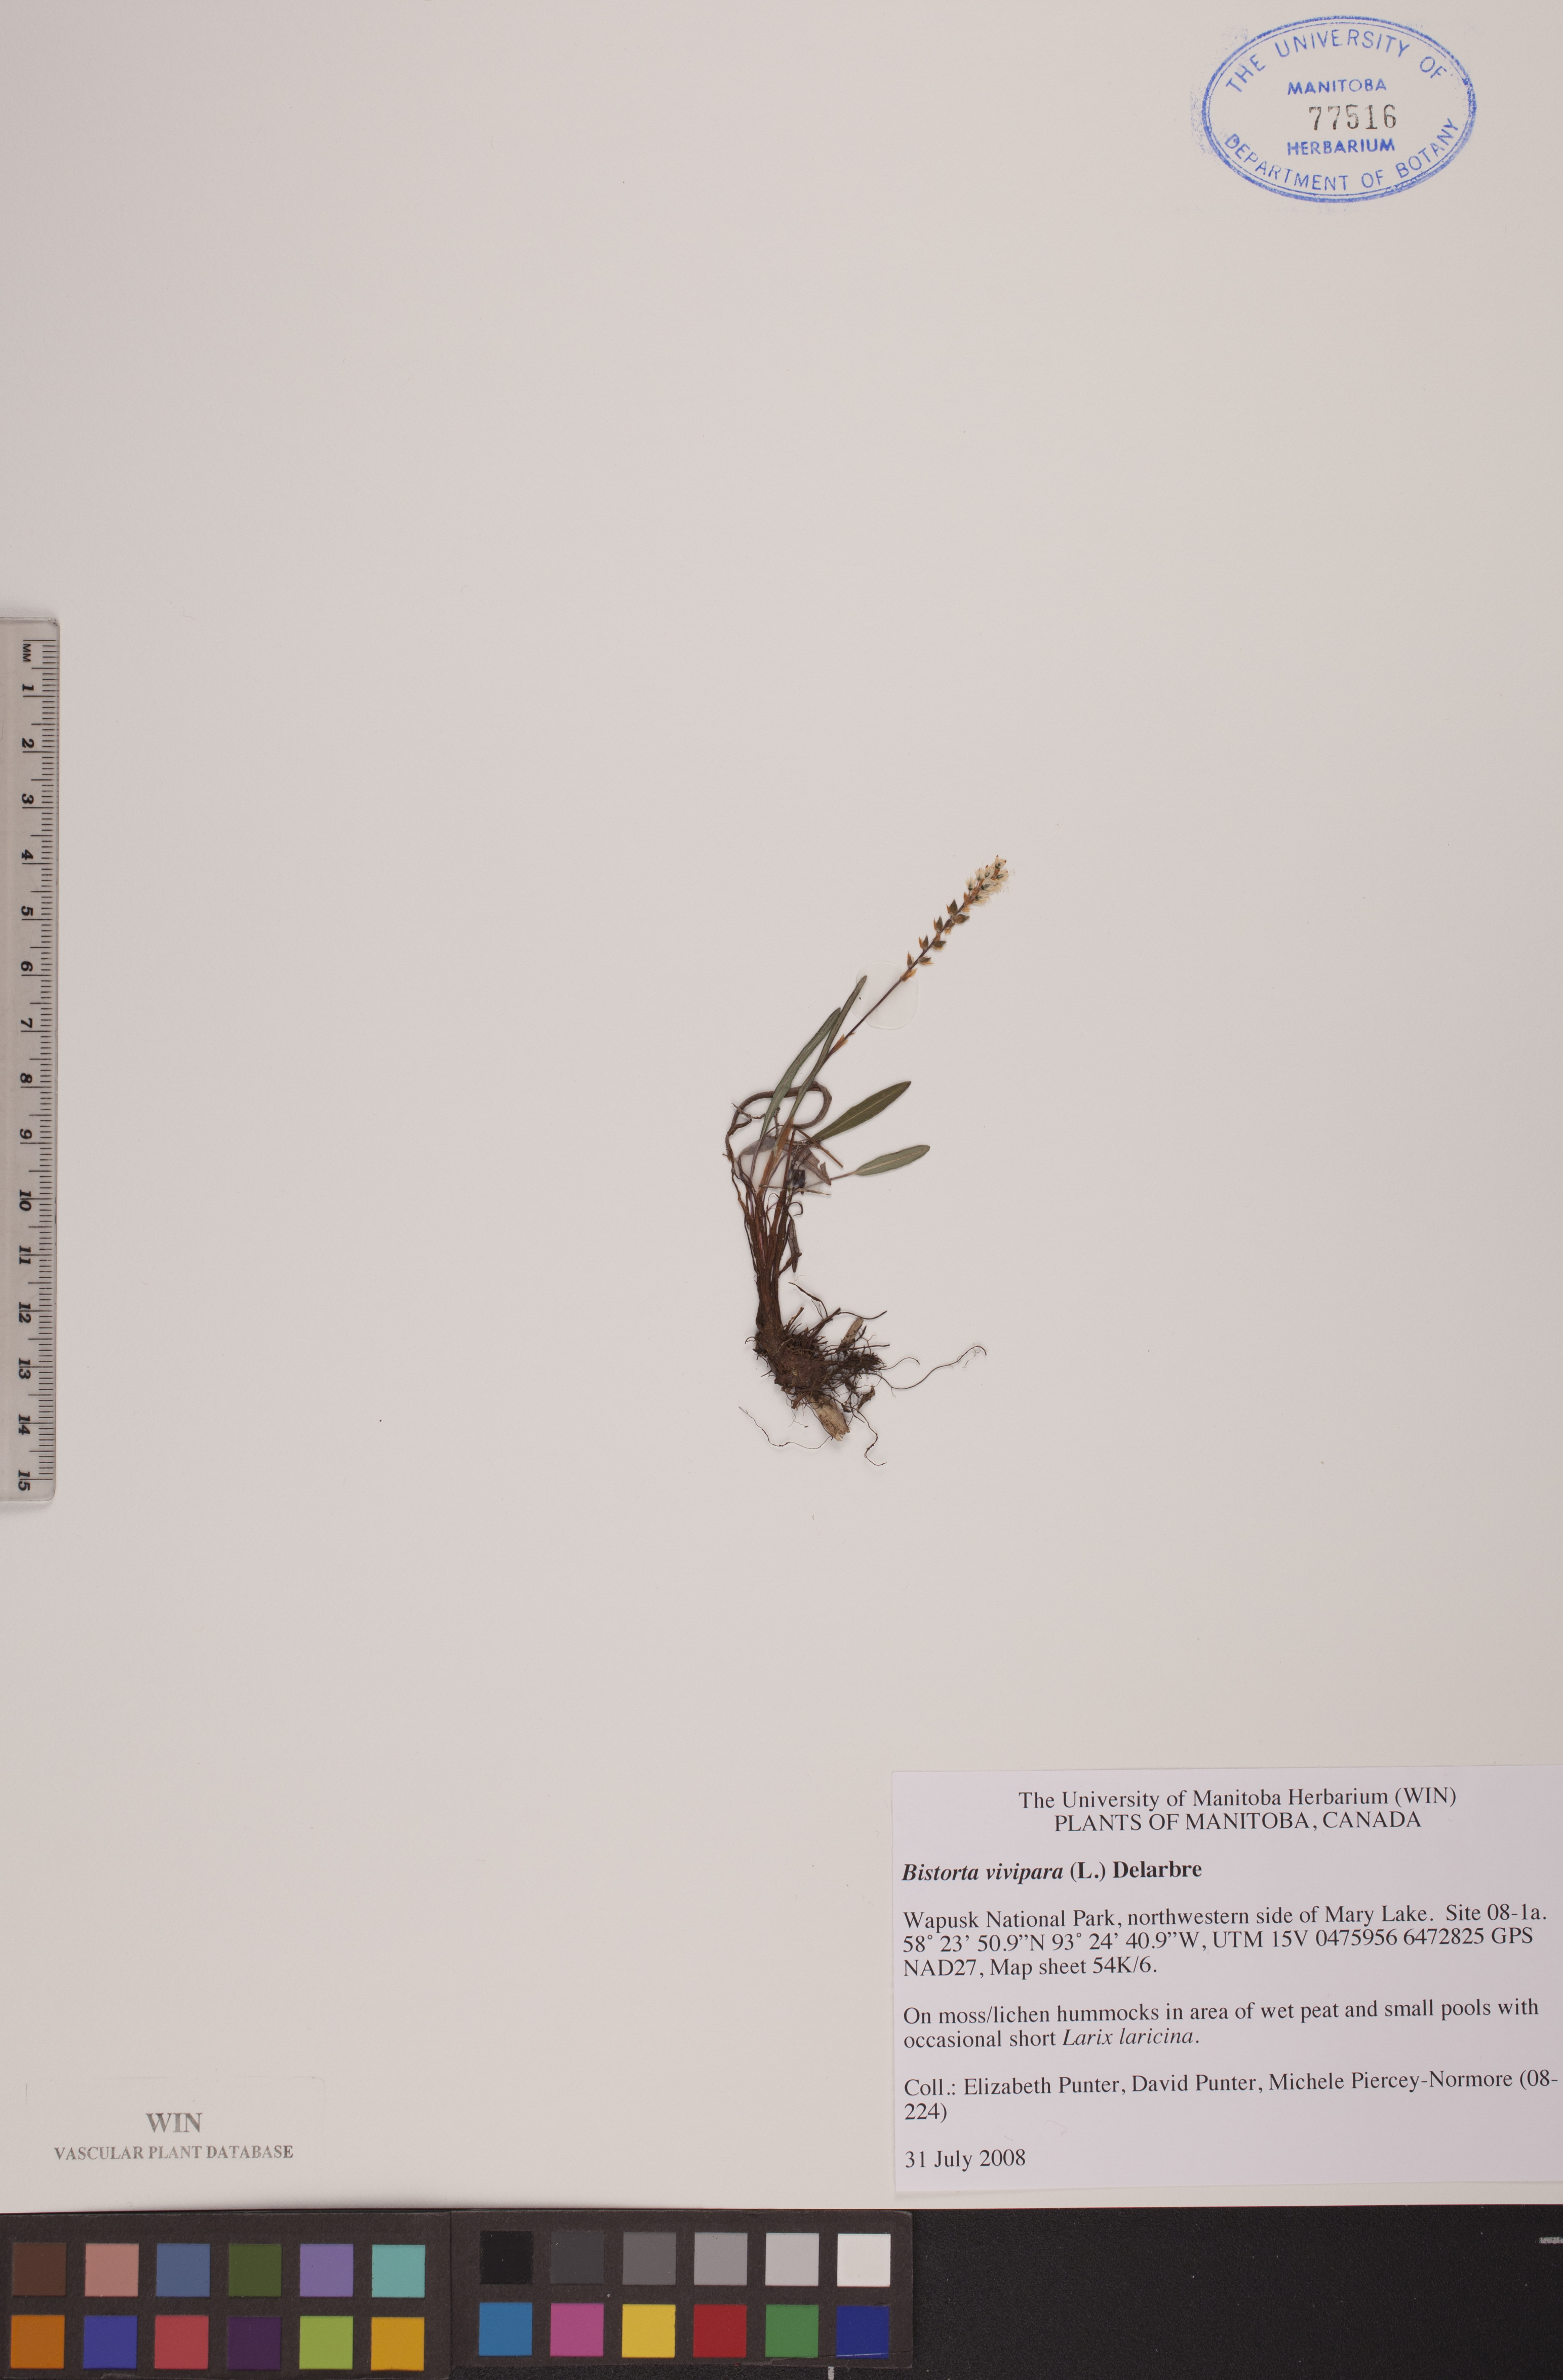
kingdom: Plantae
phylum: Tracheophyta
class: Magnoliopsida
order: Caryophyllales
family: Polygonaceae
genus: Bistorta
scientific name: Bistorta vivipara
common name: Alpine bistort
